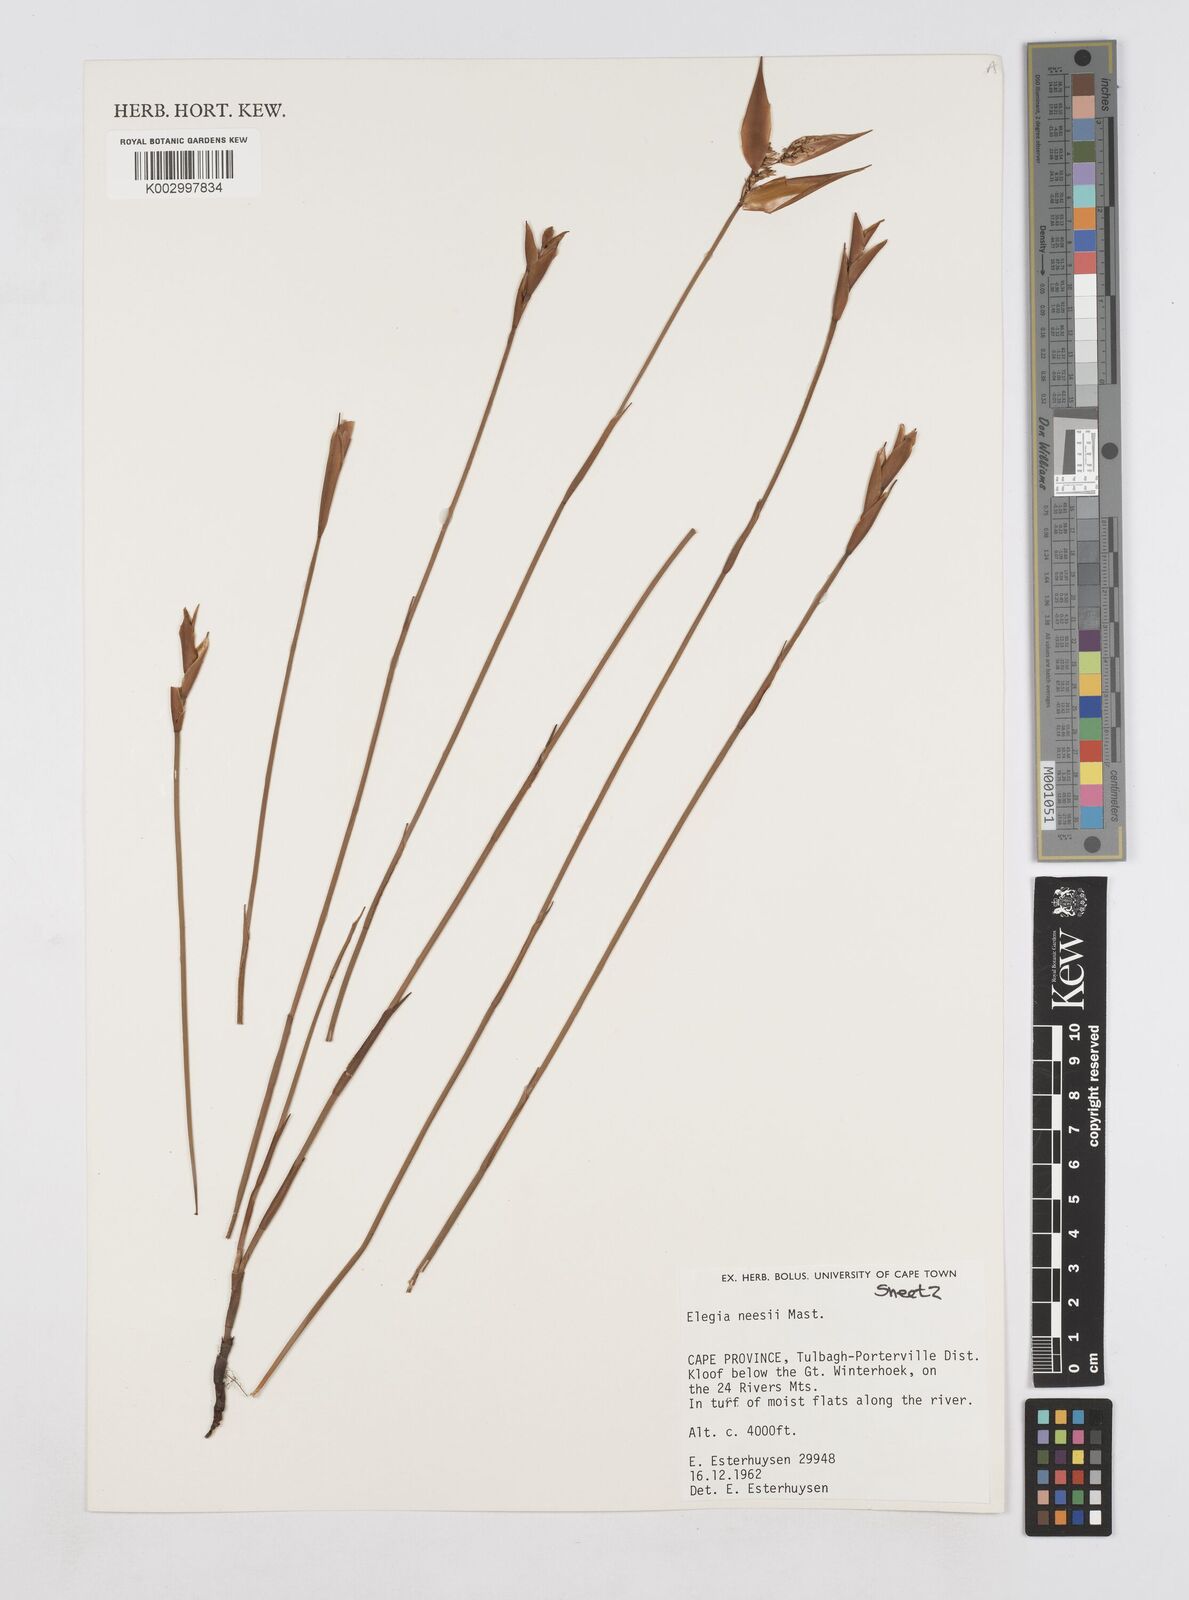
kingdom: Plantae
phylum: Tracheophyta
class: Liliopsida
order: Poales
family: Restionaceae
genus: Elegia
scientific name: Elegia neesii
